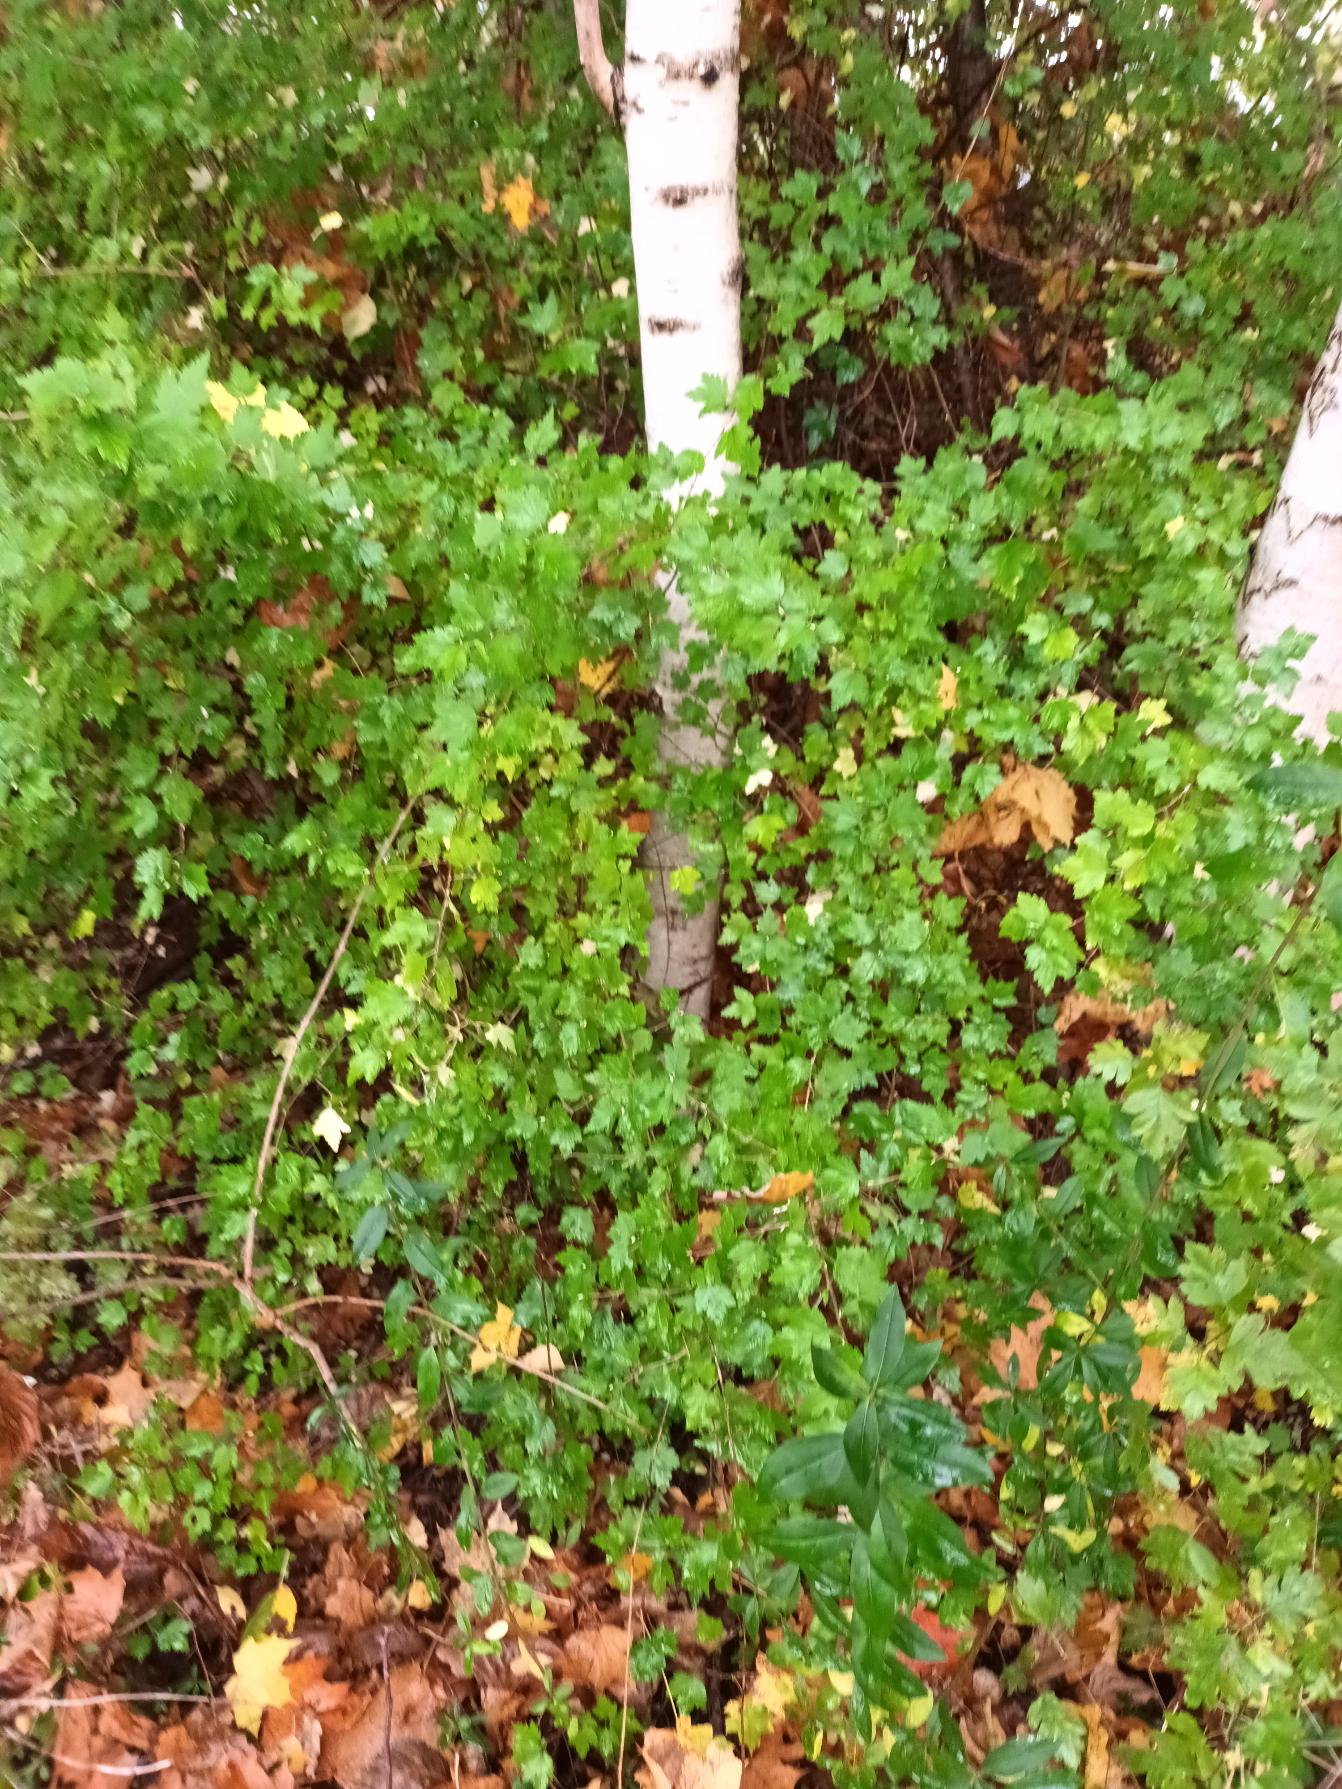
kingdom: Plantae
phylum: Tracheophyta
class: Magnoliopsida
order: Saxifragales
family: Grossulariaceae
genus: Ribes
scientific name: Ribes alpinum
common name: Fjeld-ribs
